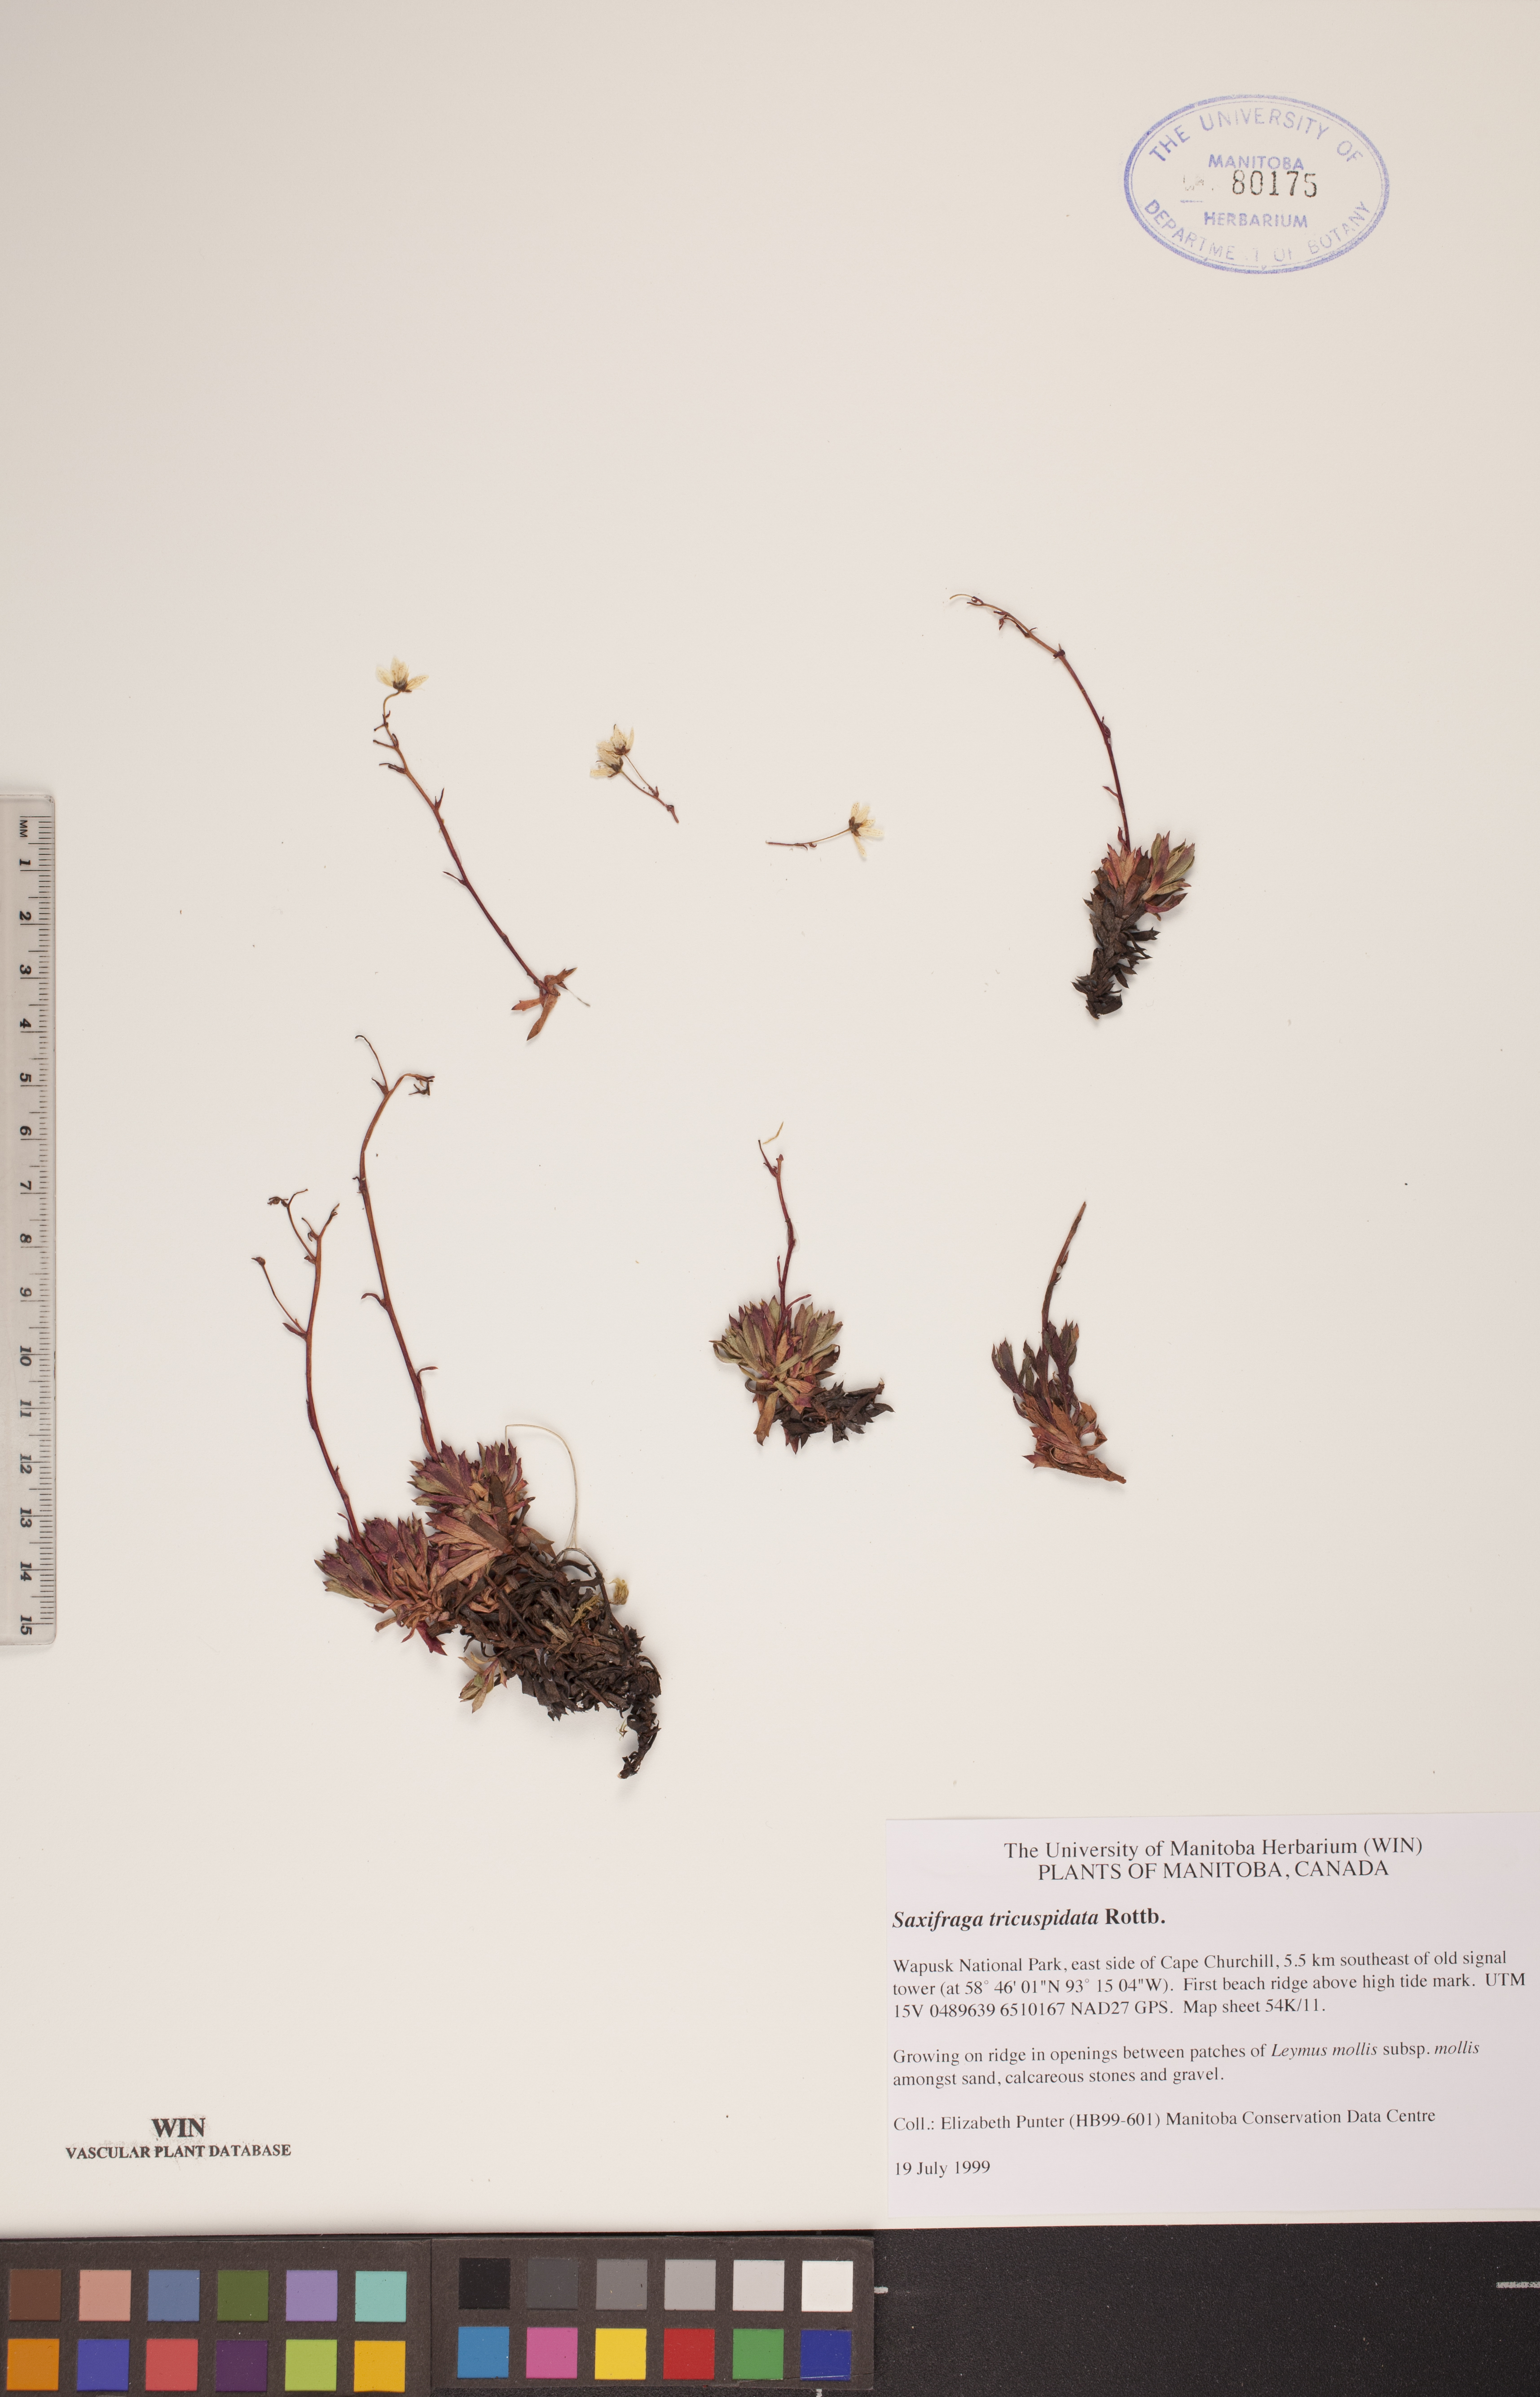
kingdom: Plantae
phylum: Tracheophyta
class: Magnoliopsida
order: Saxifragales
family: Saxifragaceae
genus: Saxifraga
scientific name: Saxifraga tricuspidata
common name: Prickly saxifrage
